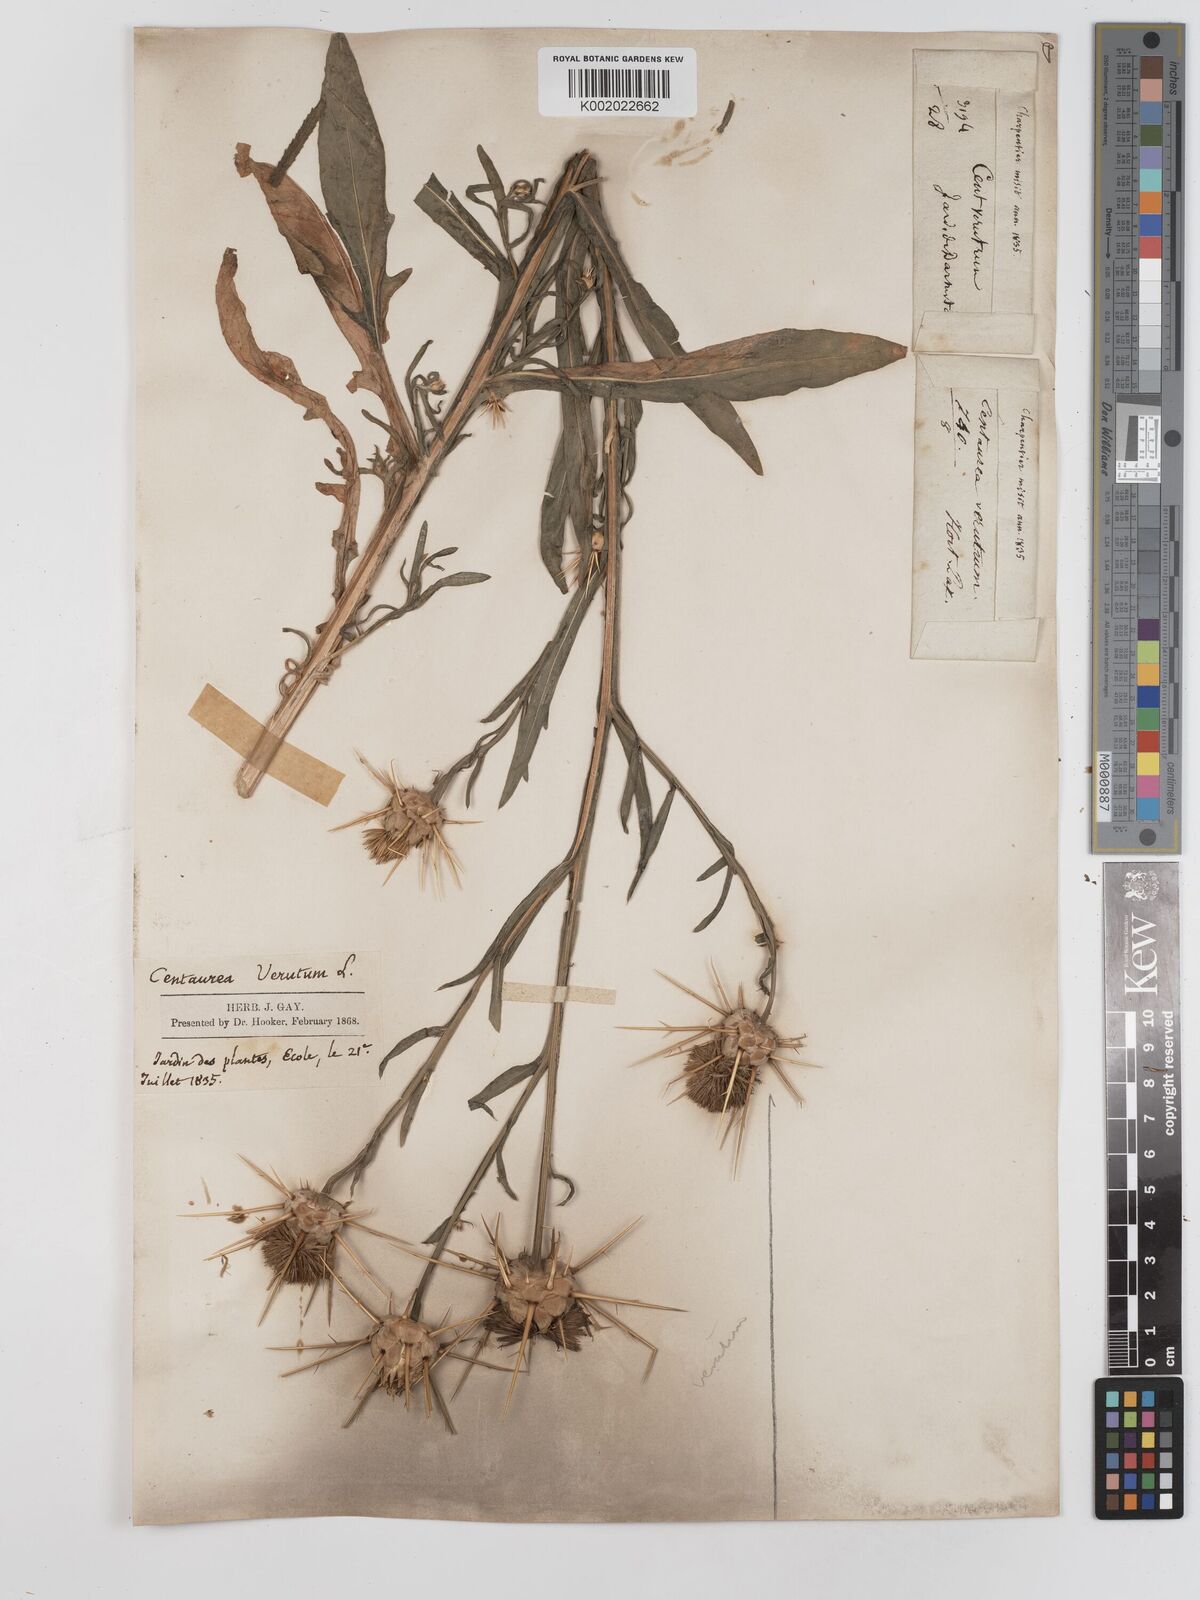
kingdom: Plantae
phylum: Tracheophyta
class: Magnoliopsida
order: Asterales
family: Asteraceae
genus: Centaurea
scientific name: Centaurea verutum
